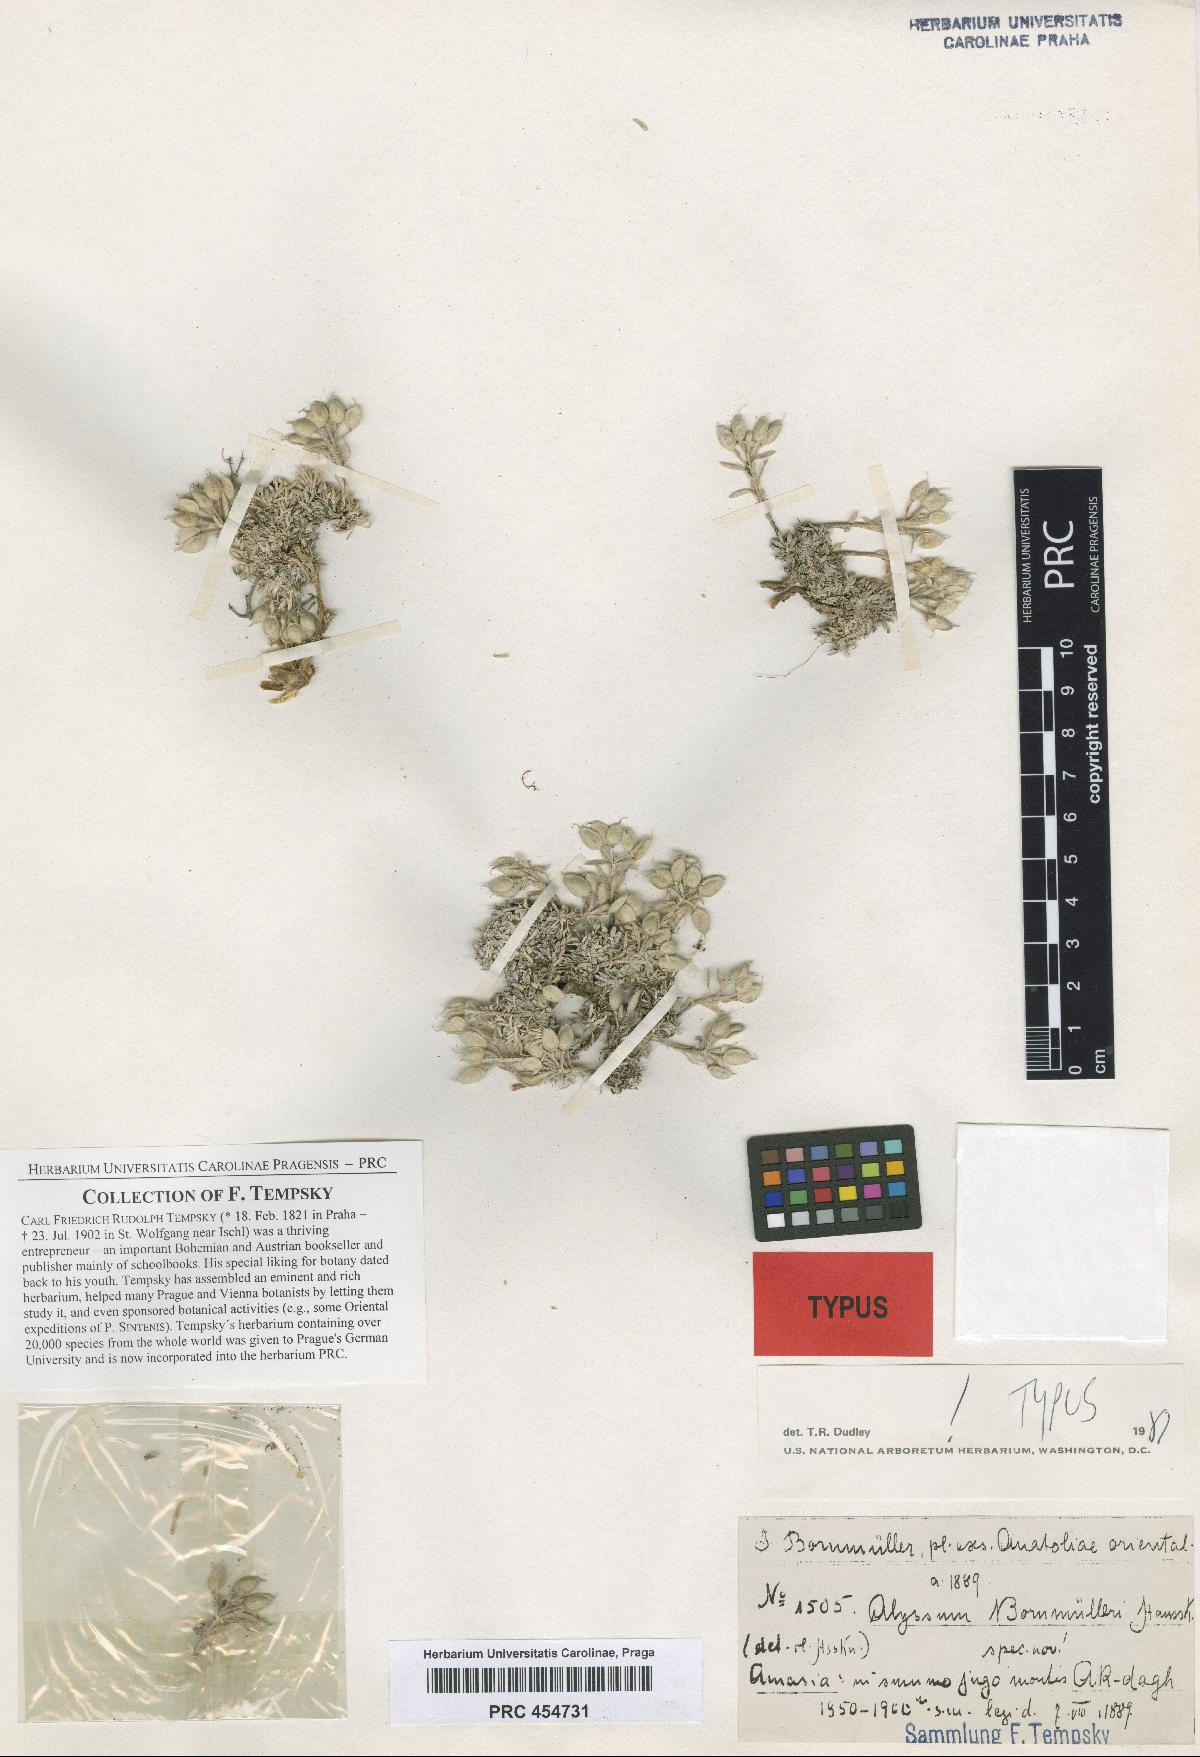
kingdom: Plantae
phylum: Tracheophyta
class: Magnoliopsida
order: Brassicales
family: Brassicaceae
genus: Alyssum
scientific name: Alyssum bornmuelleri
